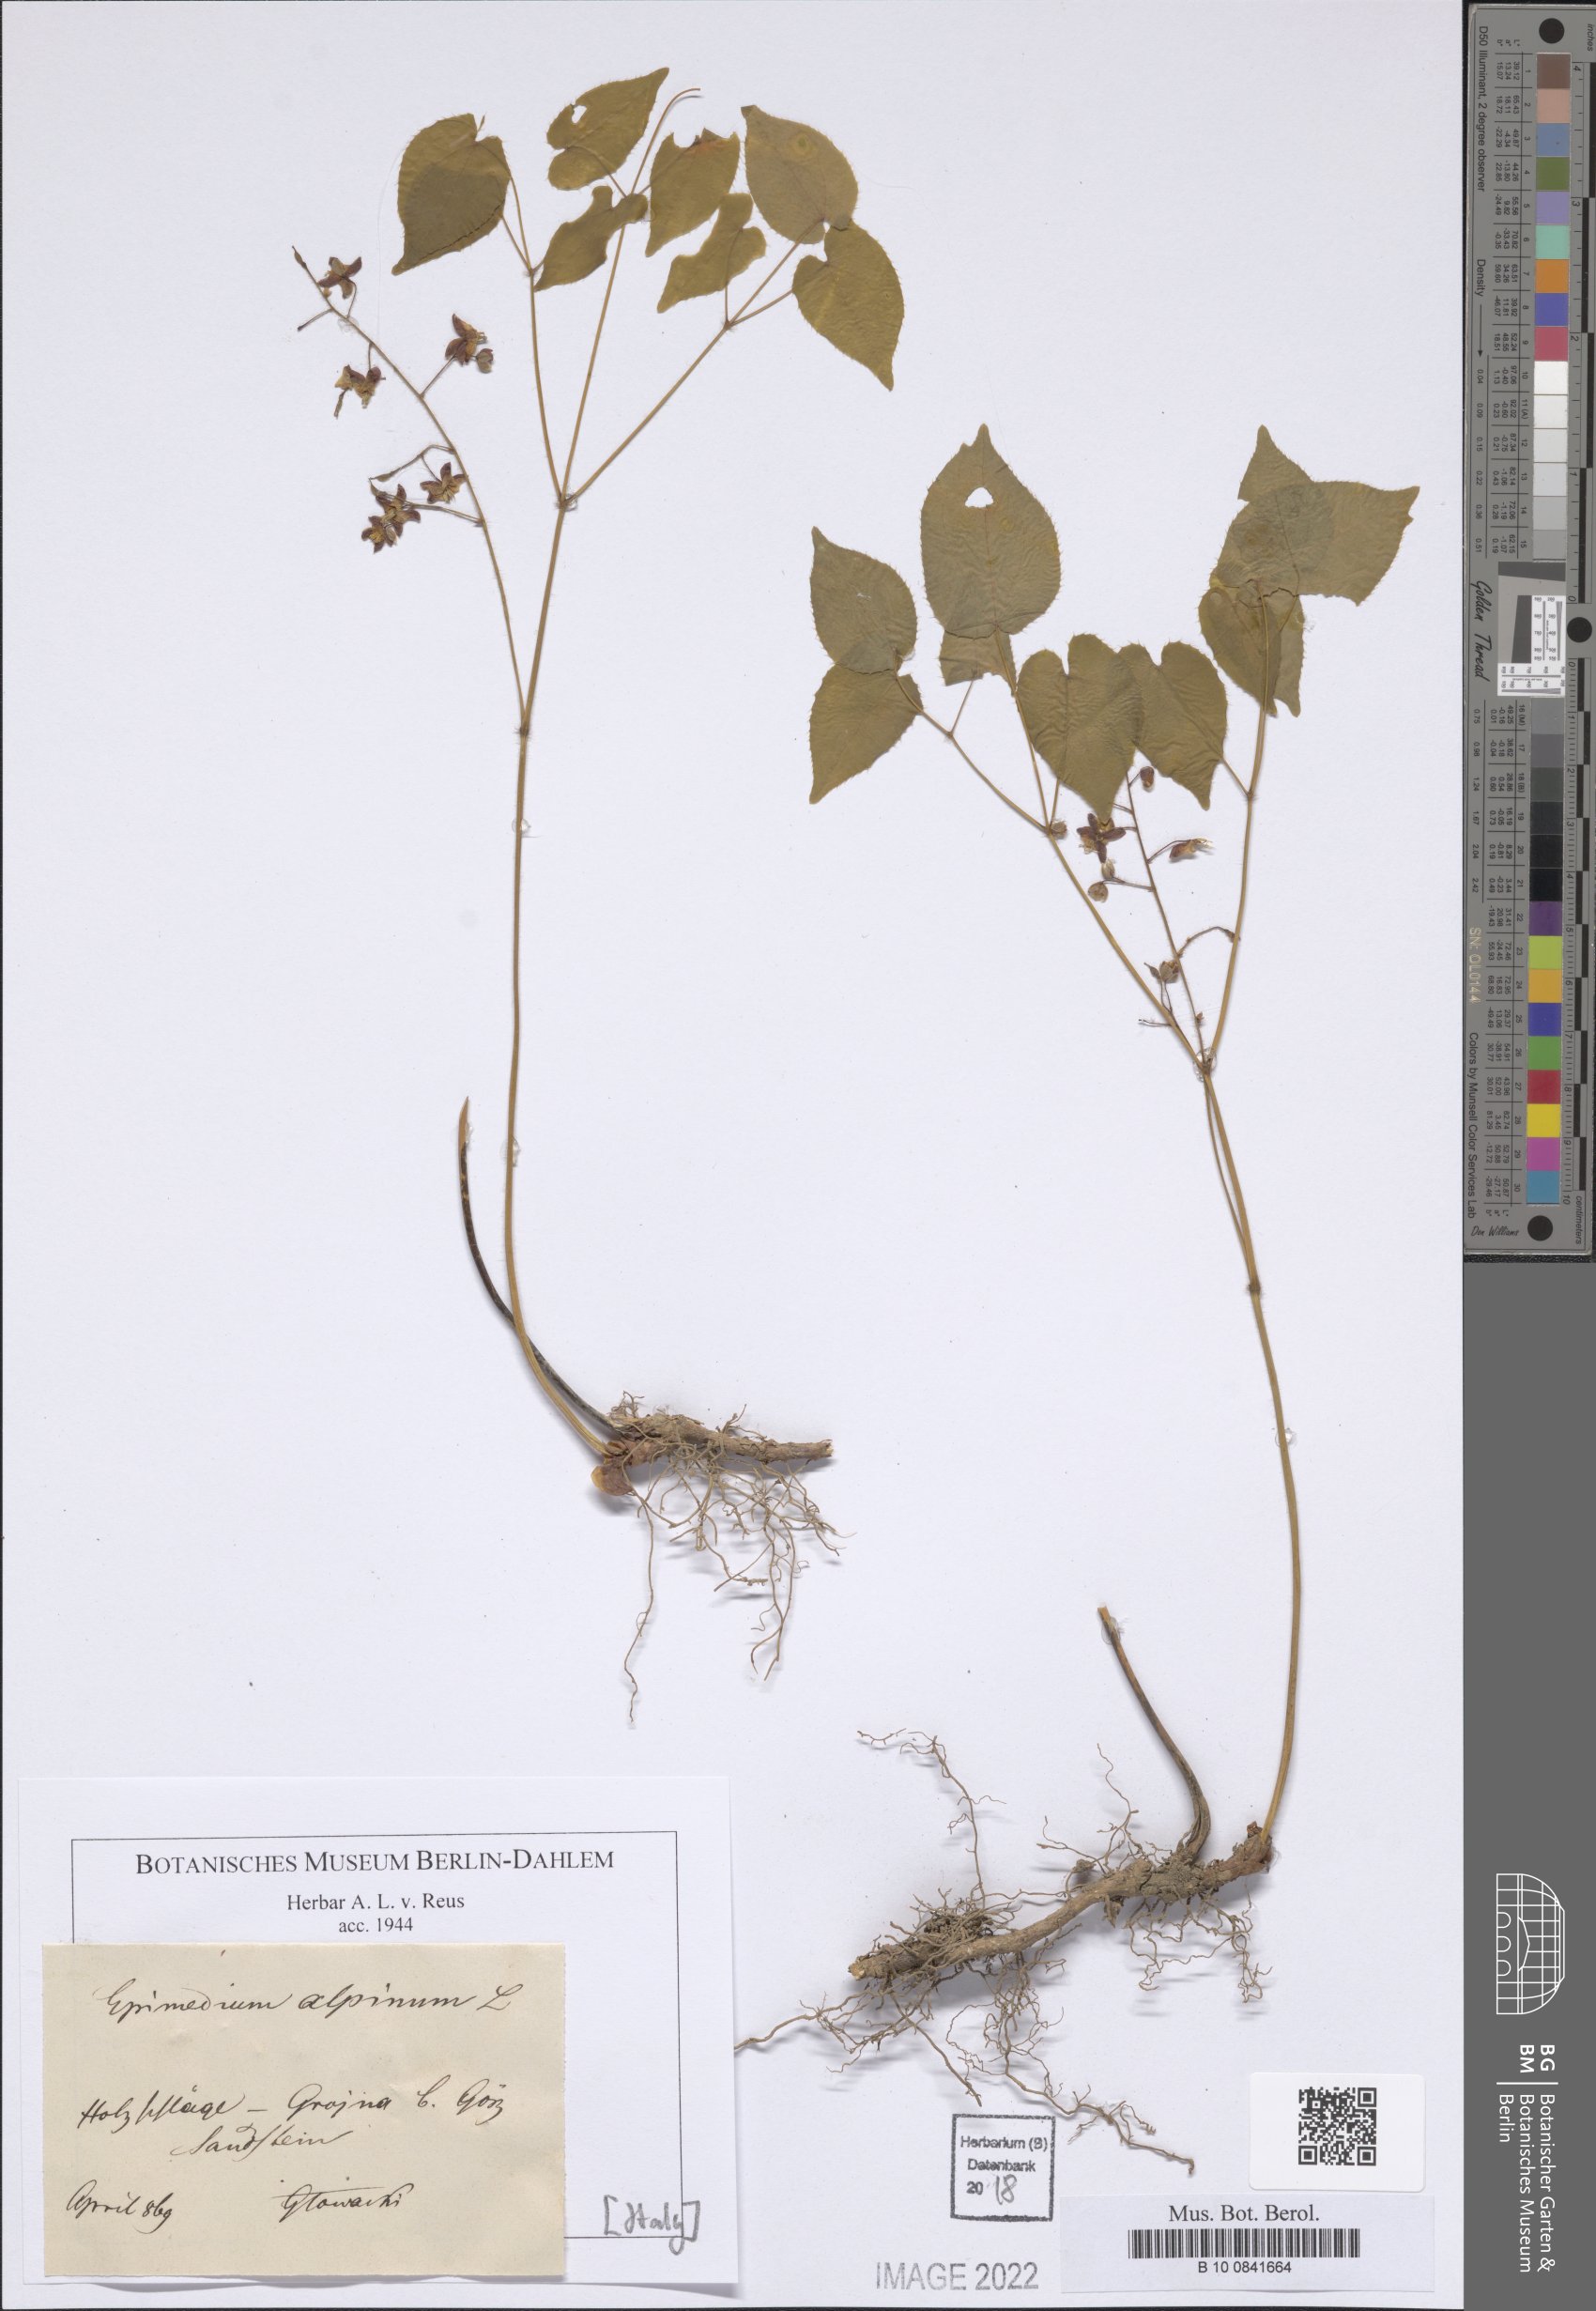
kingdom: Plantae
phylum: Tracheophyta
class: Magnoliopsida
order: Ranunculales
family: Berberidaceae
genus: Epimedium
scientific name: Epimedium alpinum
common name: Barrenwort
